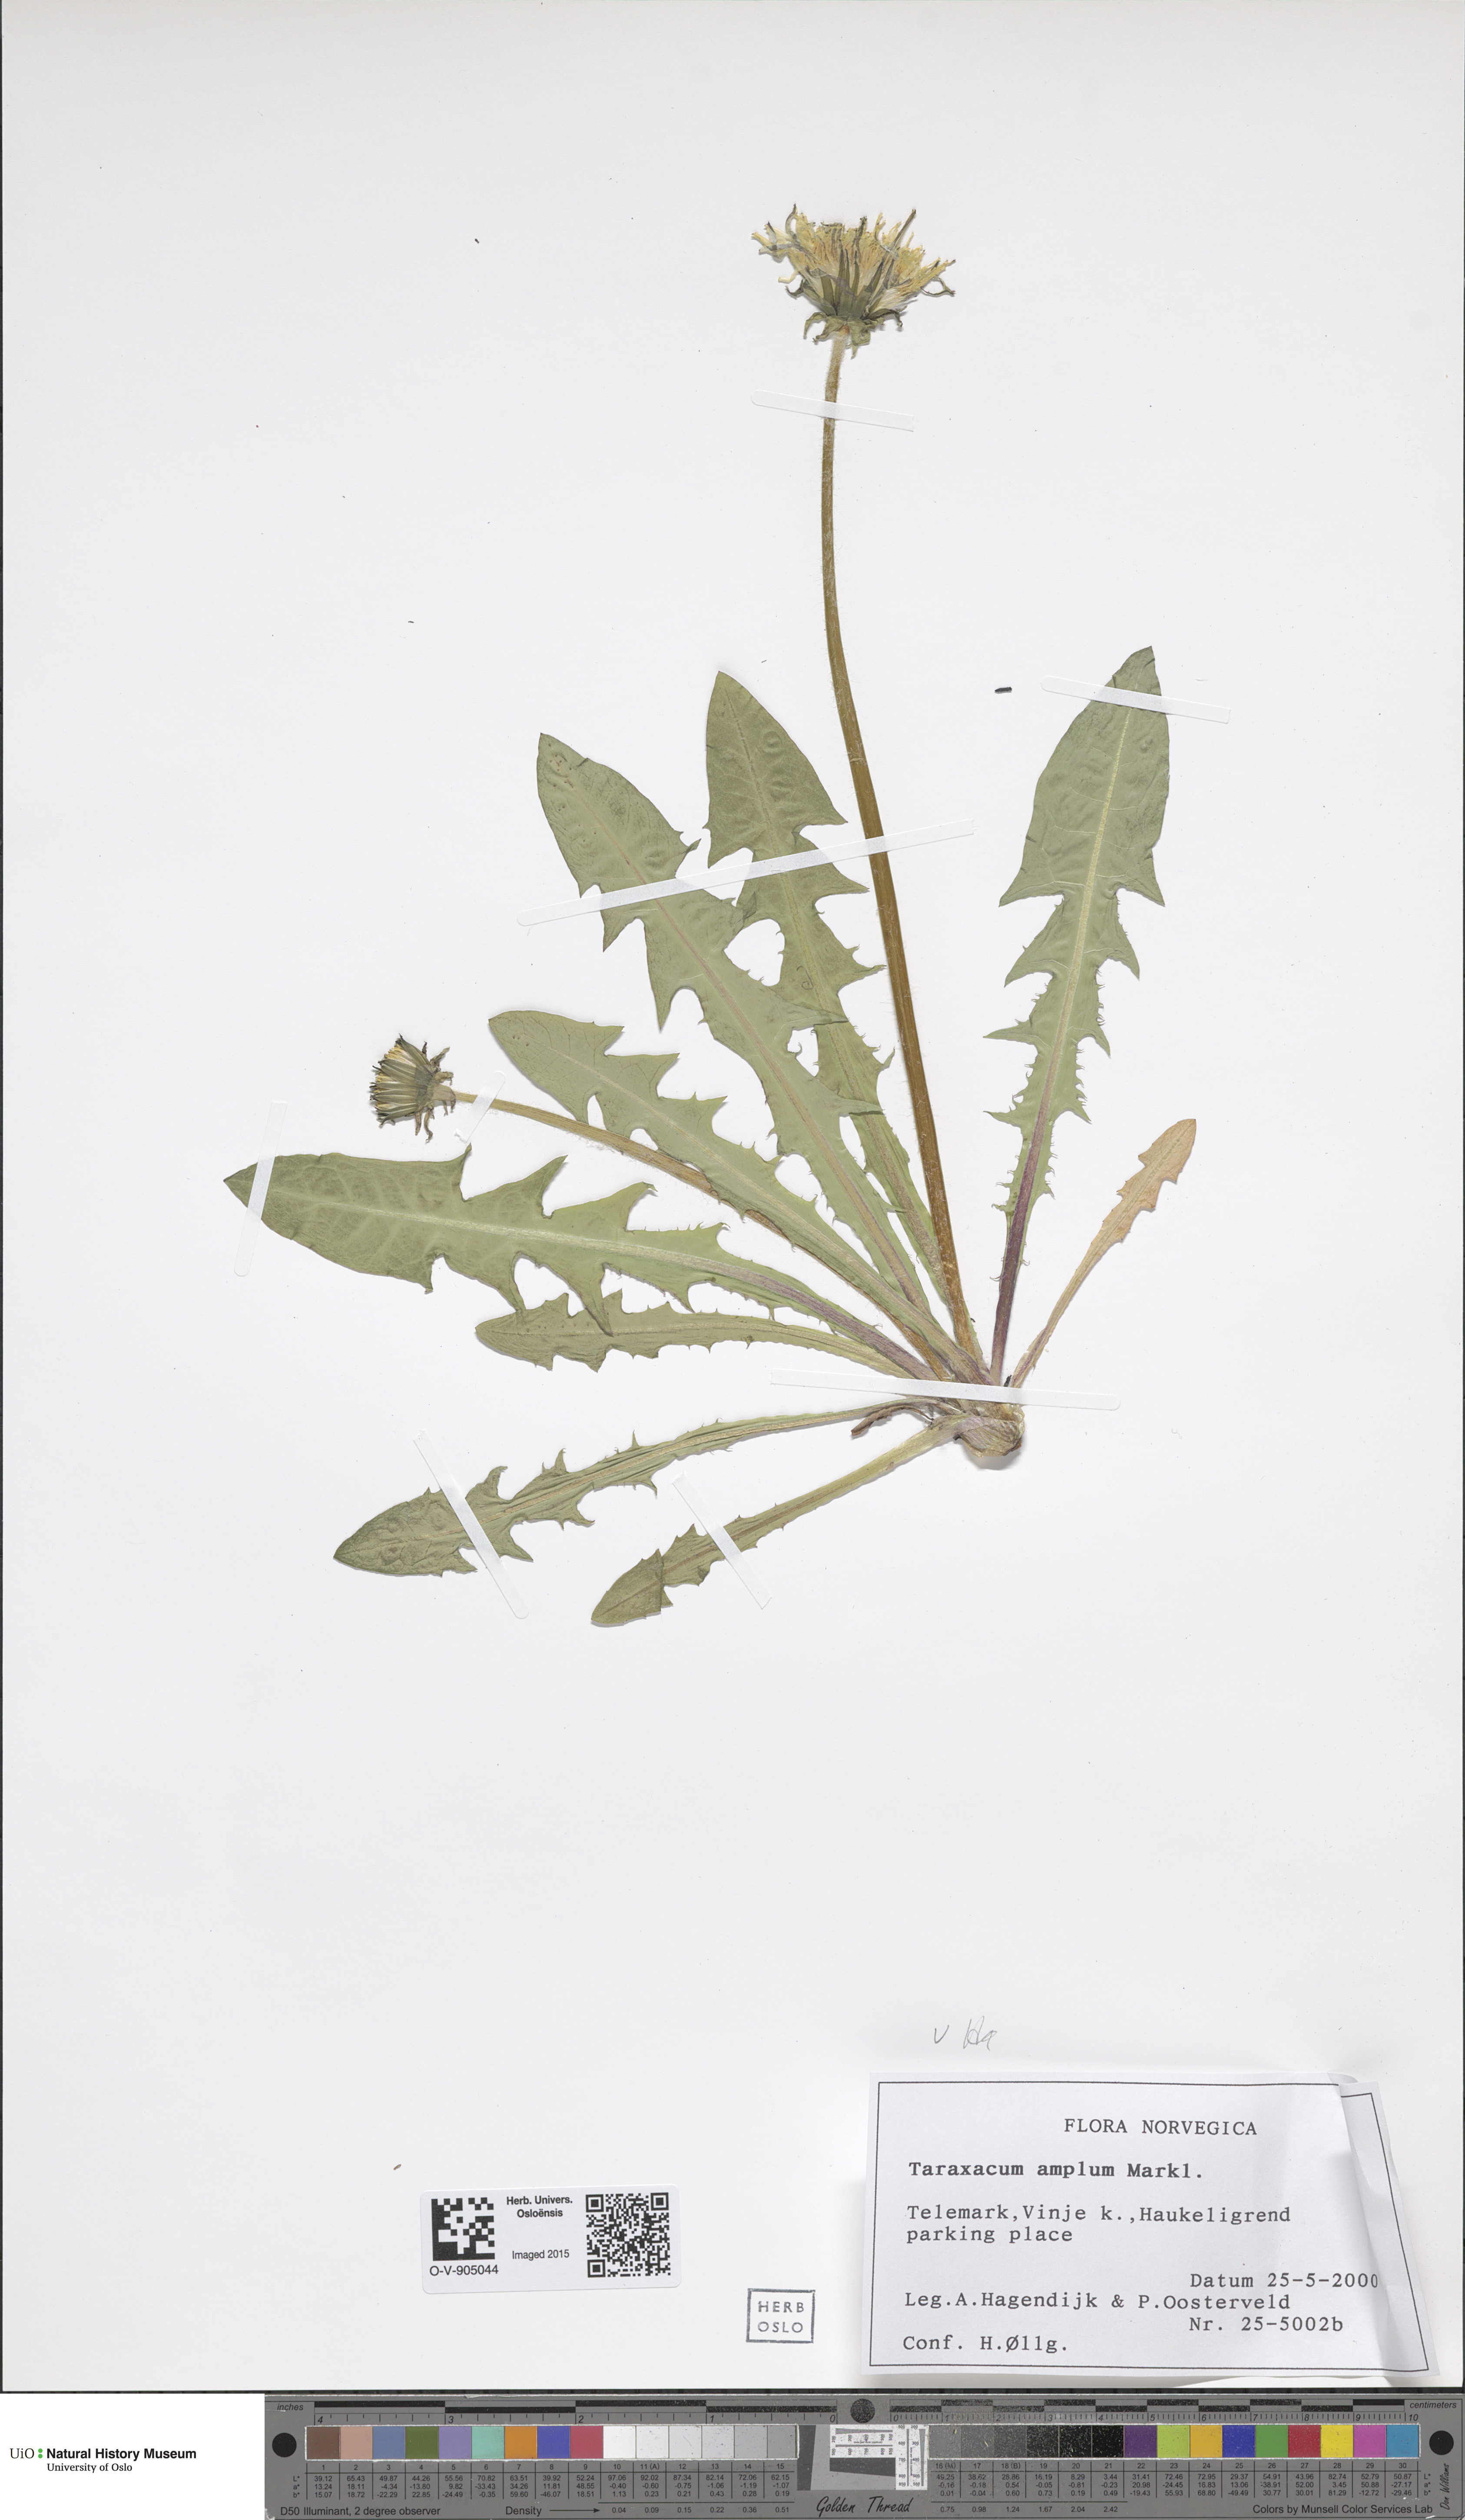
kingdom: Plantae
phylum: Tracheophyta
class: Magnoliopsida
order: Asterales
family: Asteraceae
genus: Taraxacum
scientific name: Taraxacum amplum
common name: Toothed dandelion
